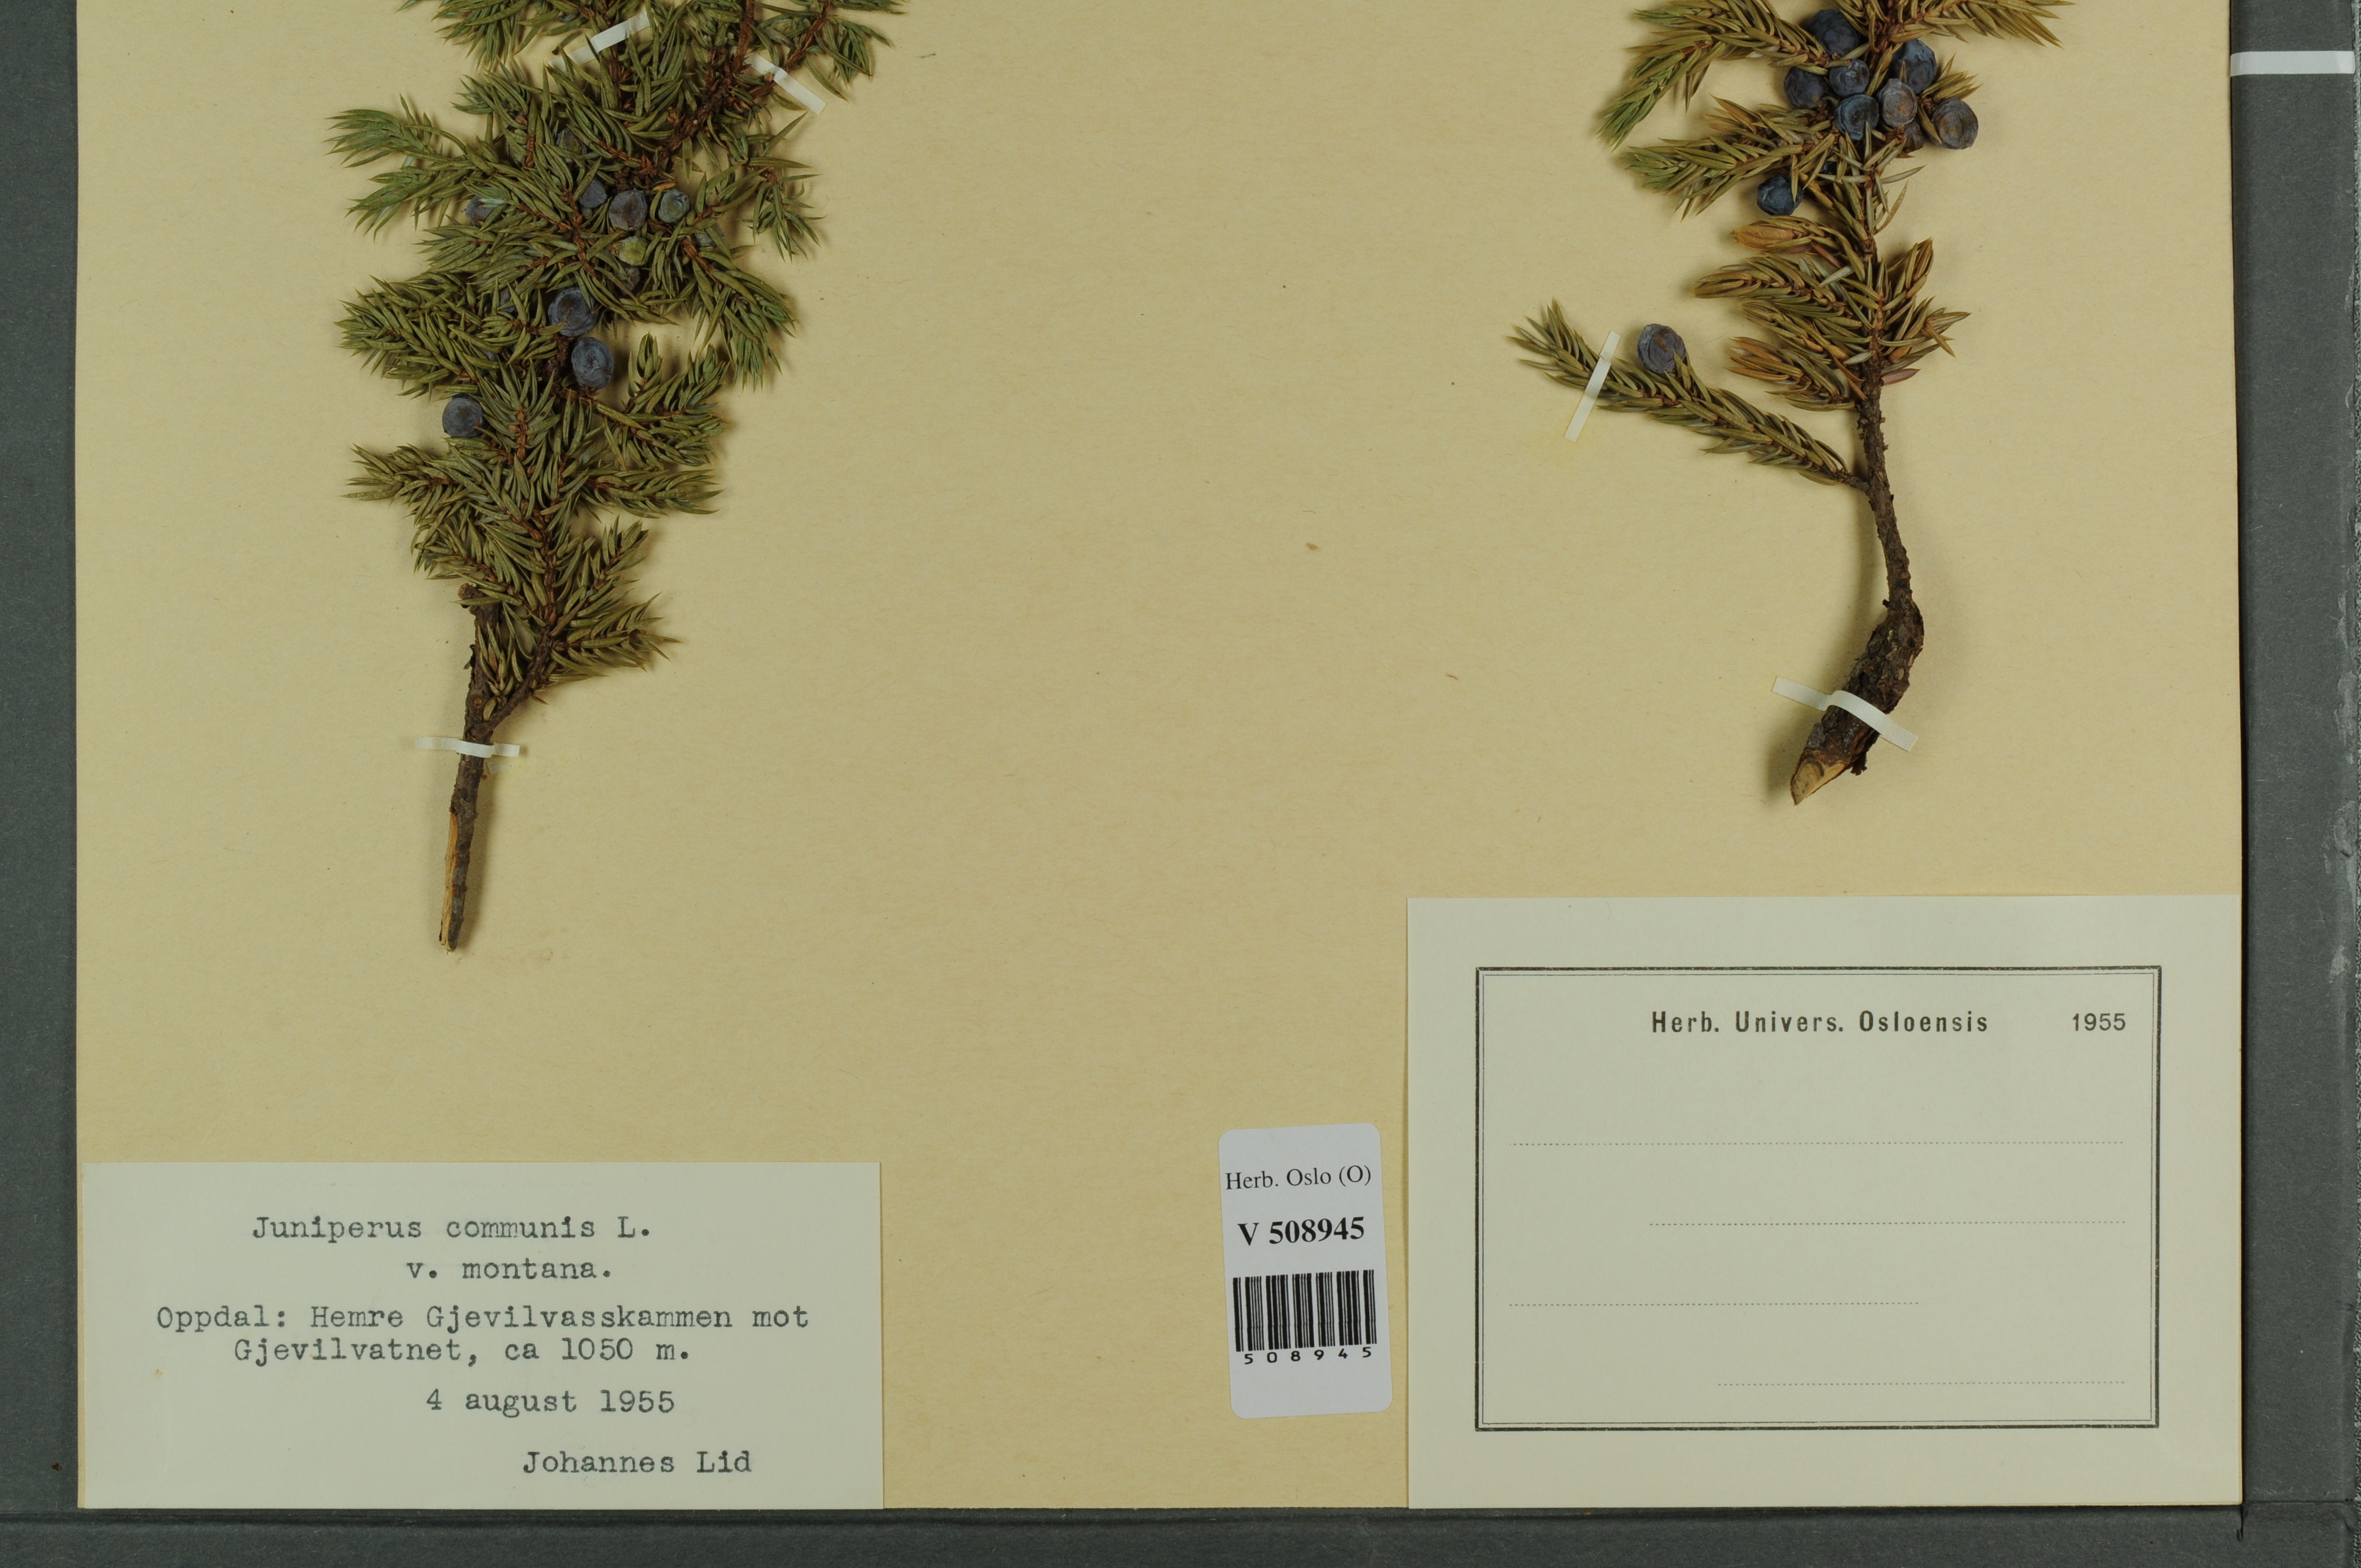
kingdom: Plantae
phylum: Tracheophyta
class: Pinopsida
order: Pinales
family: Cupressaceae
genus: Juniperus
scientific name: Juniperus communis
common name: Common juniper
